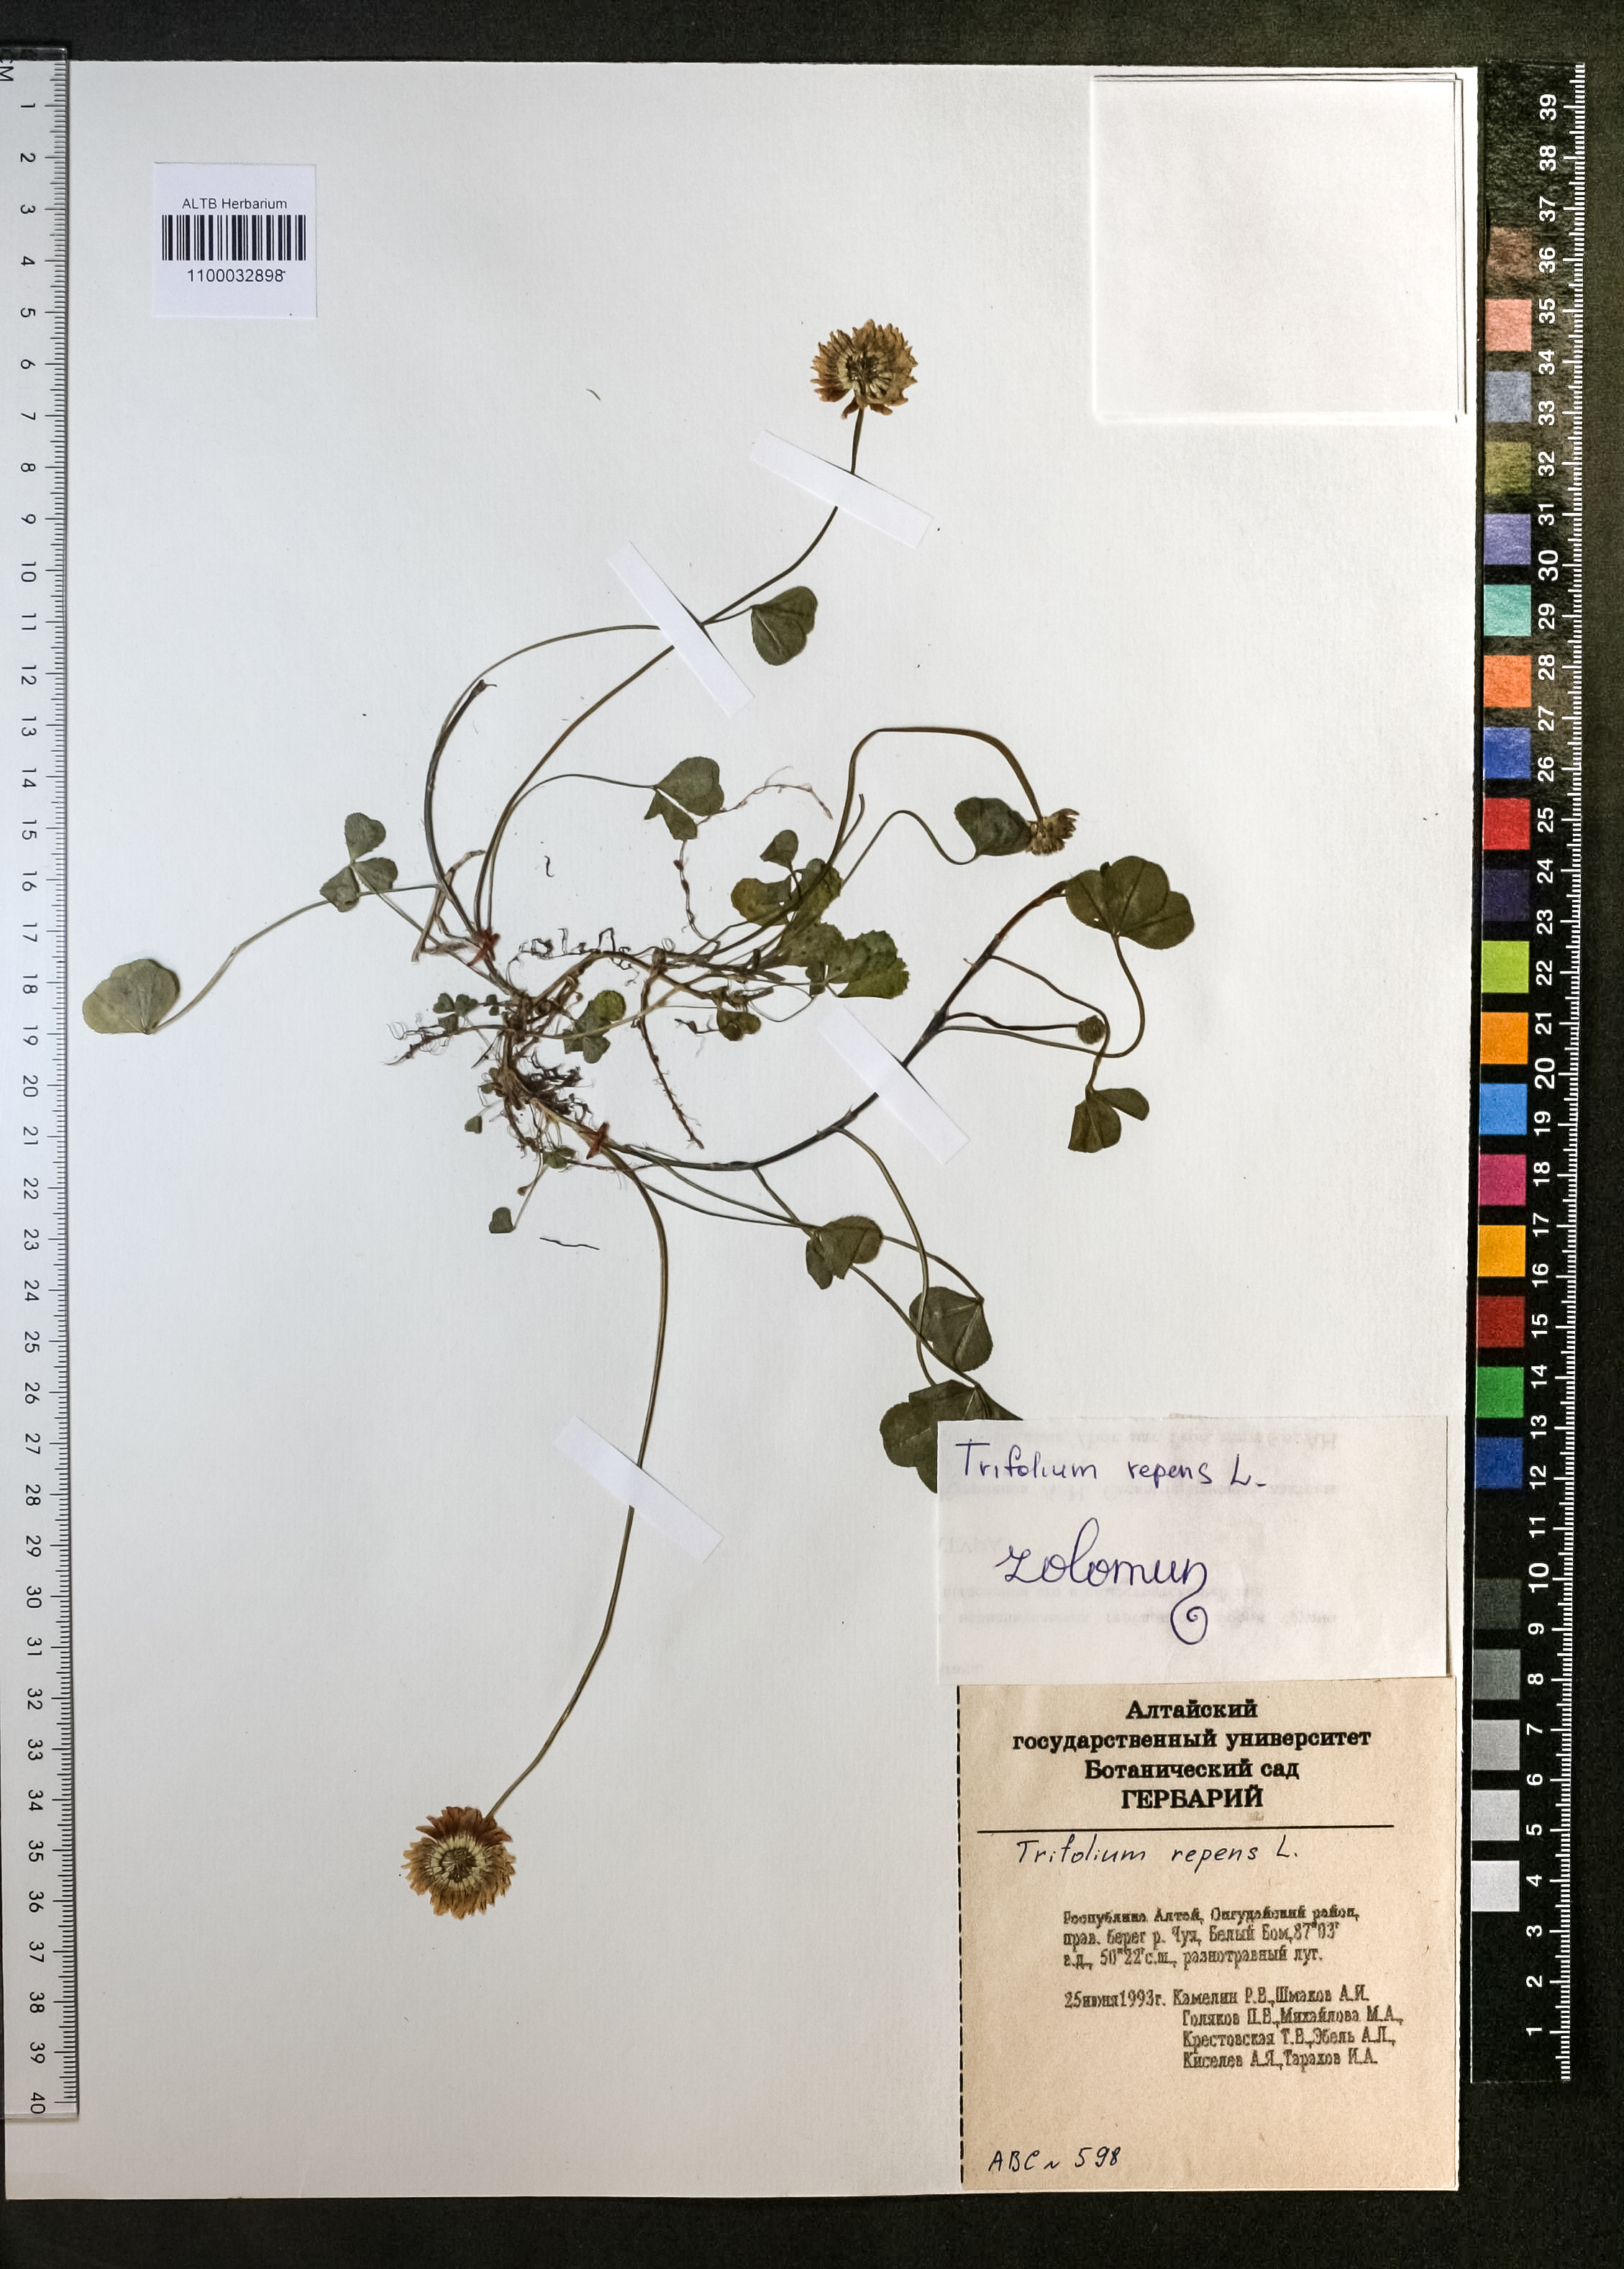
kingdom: Plantae
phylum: Tracheophyta
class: Magnoliopsida
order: Fabales
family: Fabaceae
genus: Trifolium
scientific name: Trifolium repens
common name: White clover
